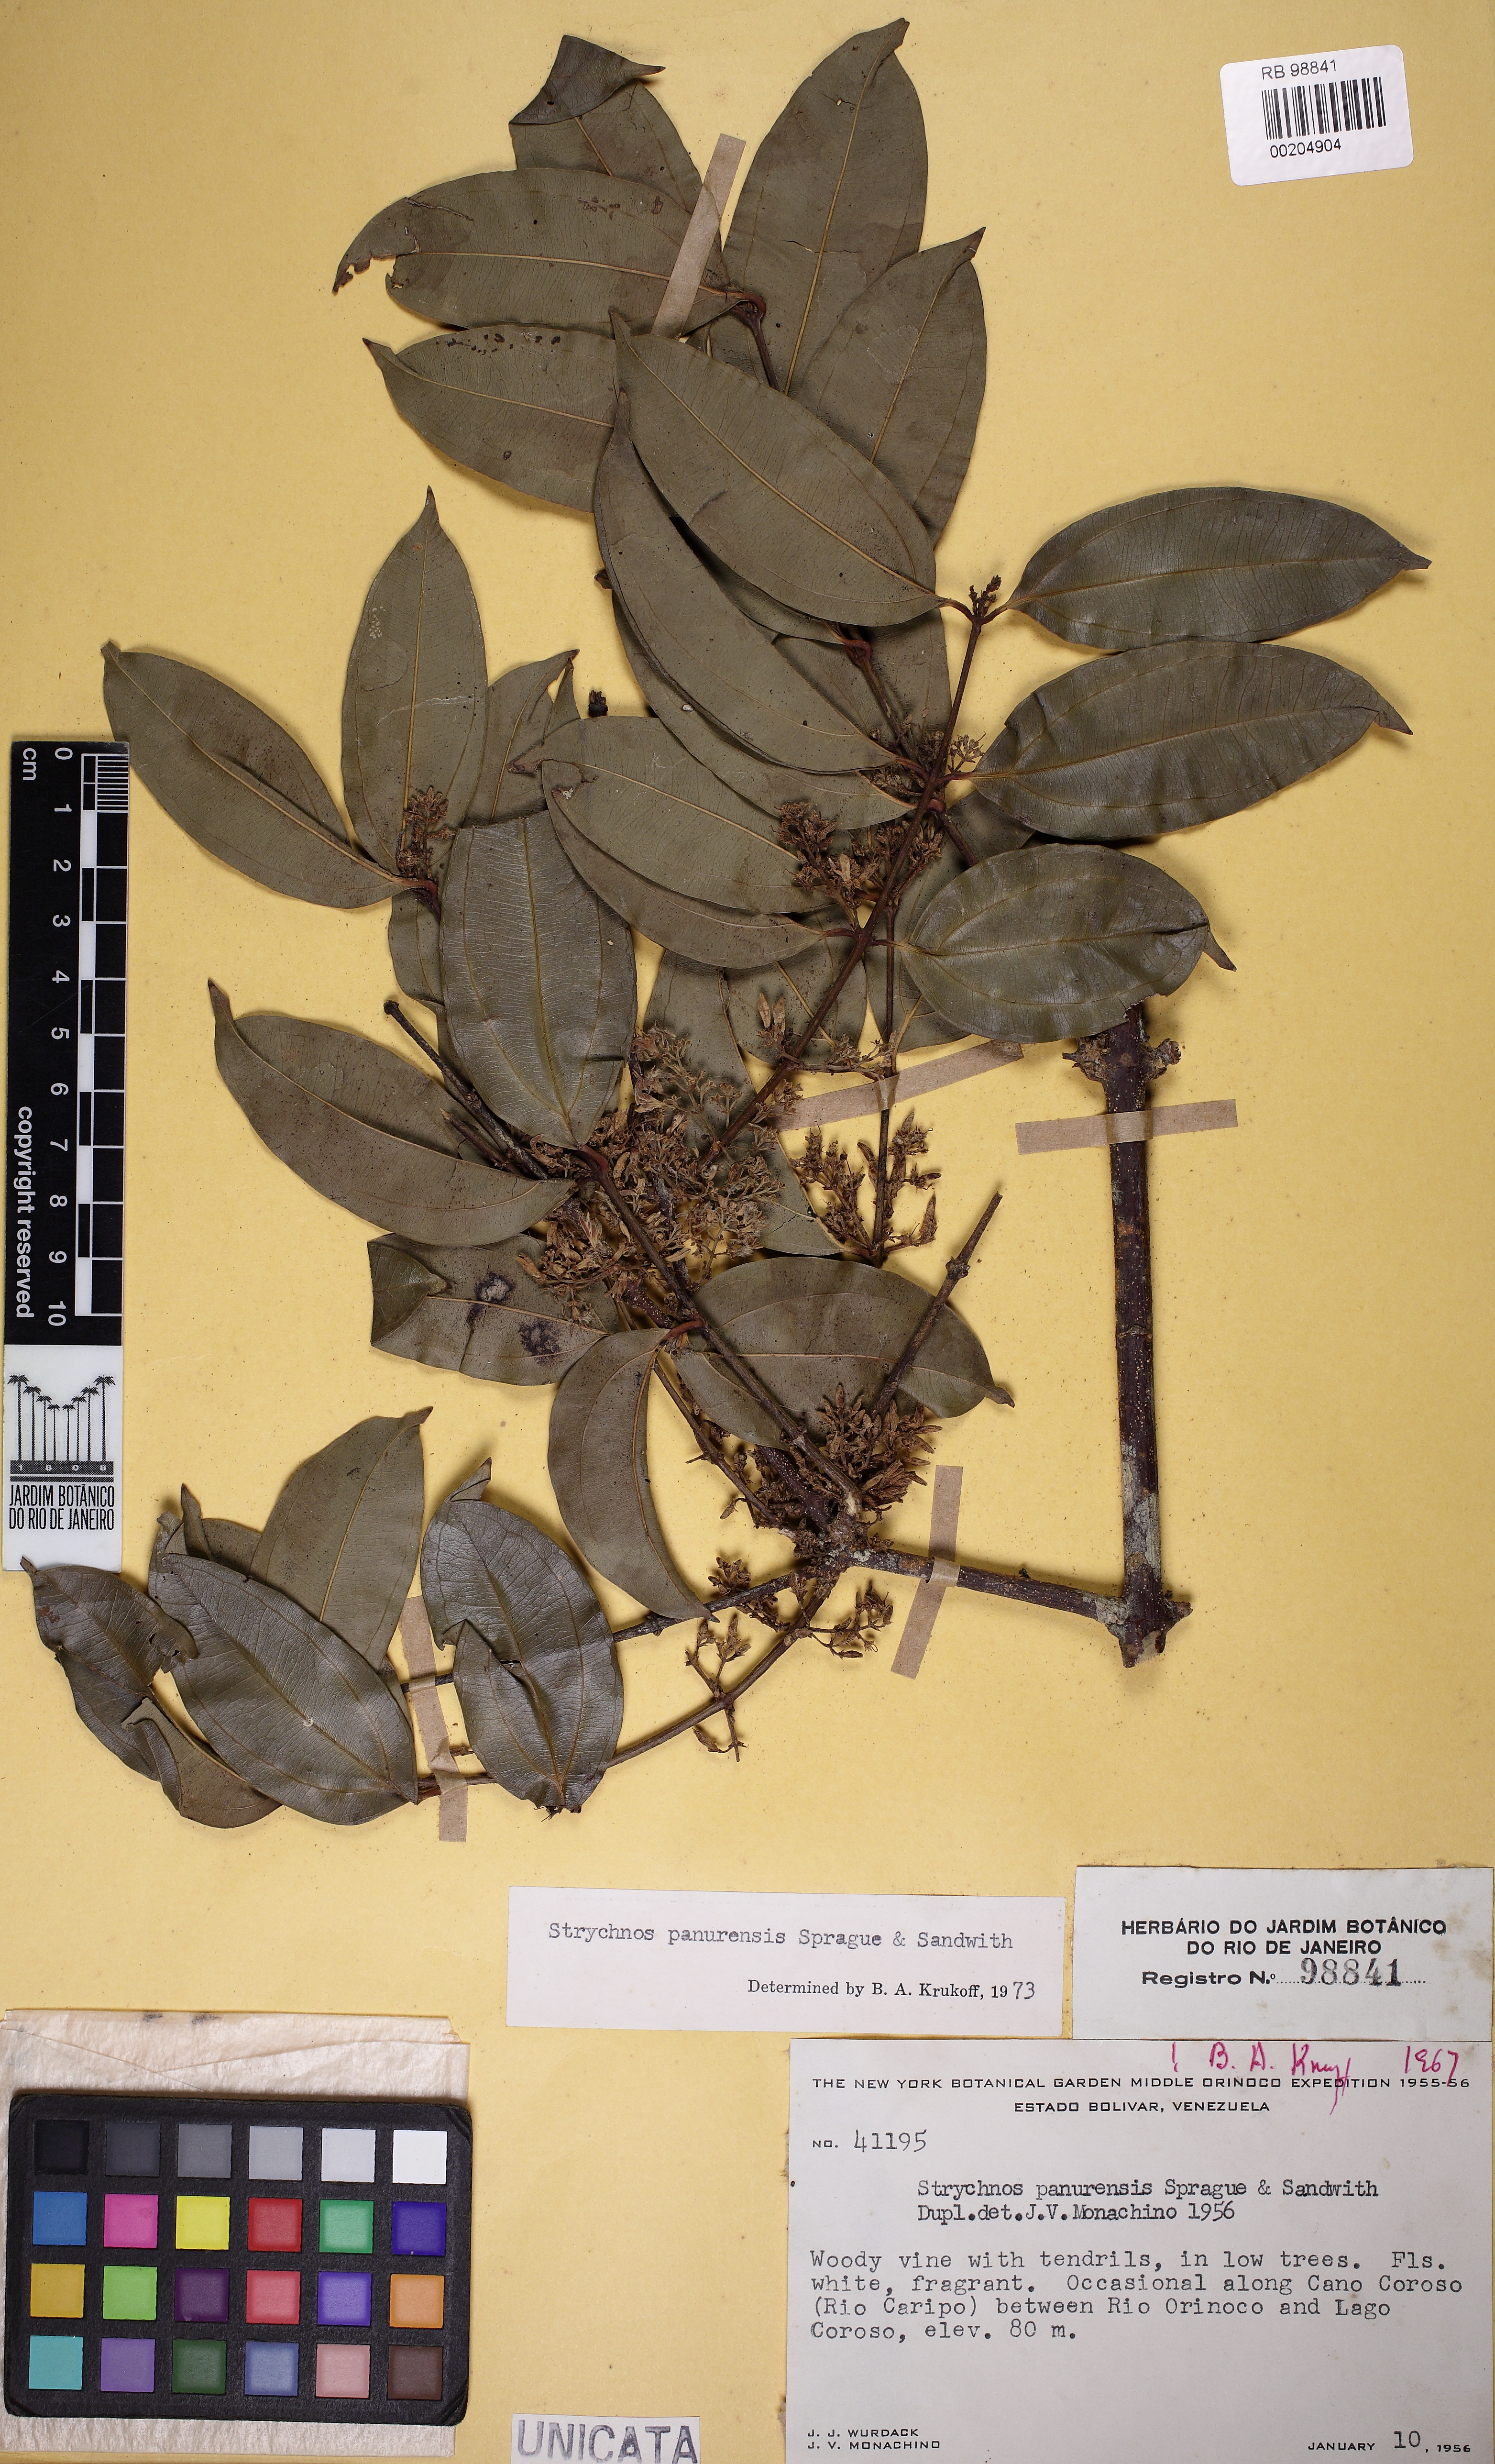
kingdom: Plantae
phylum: Tracheophyta
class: Magnoliopsida
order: Gentianales
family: Loganiaceae
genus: Strychnos
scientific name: Strychnos parviflora
